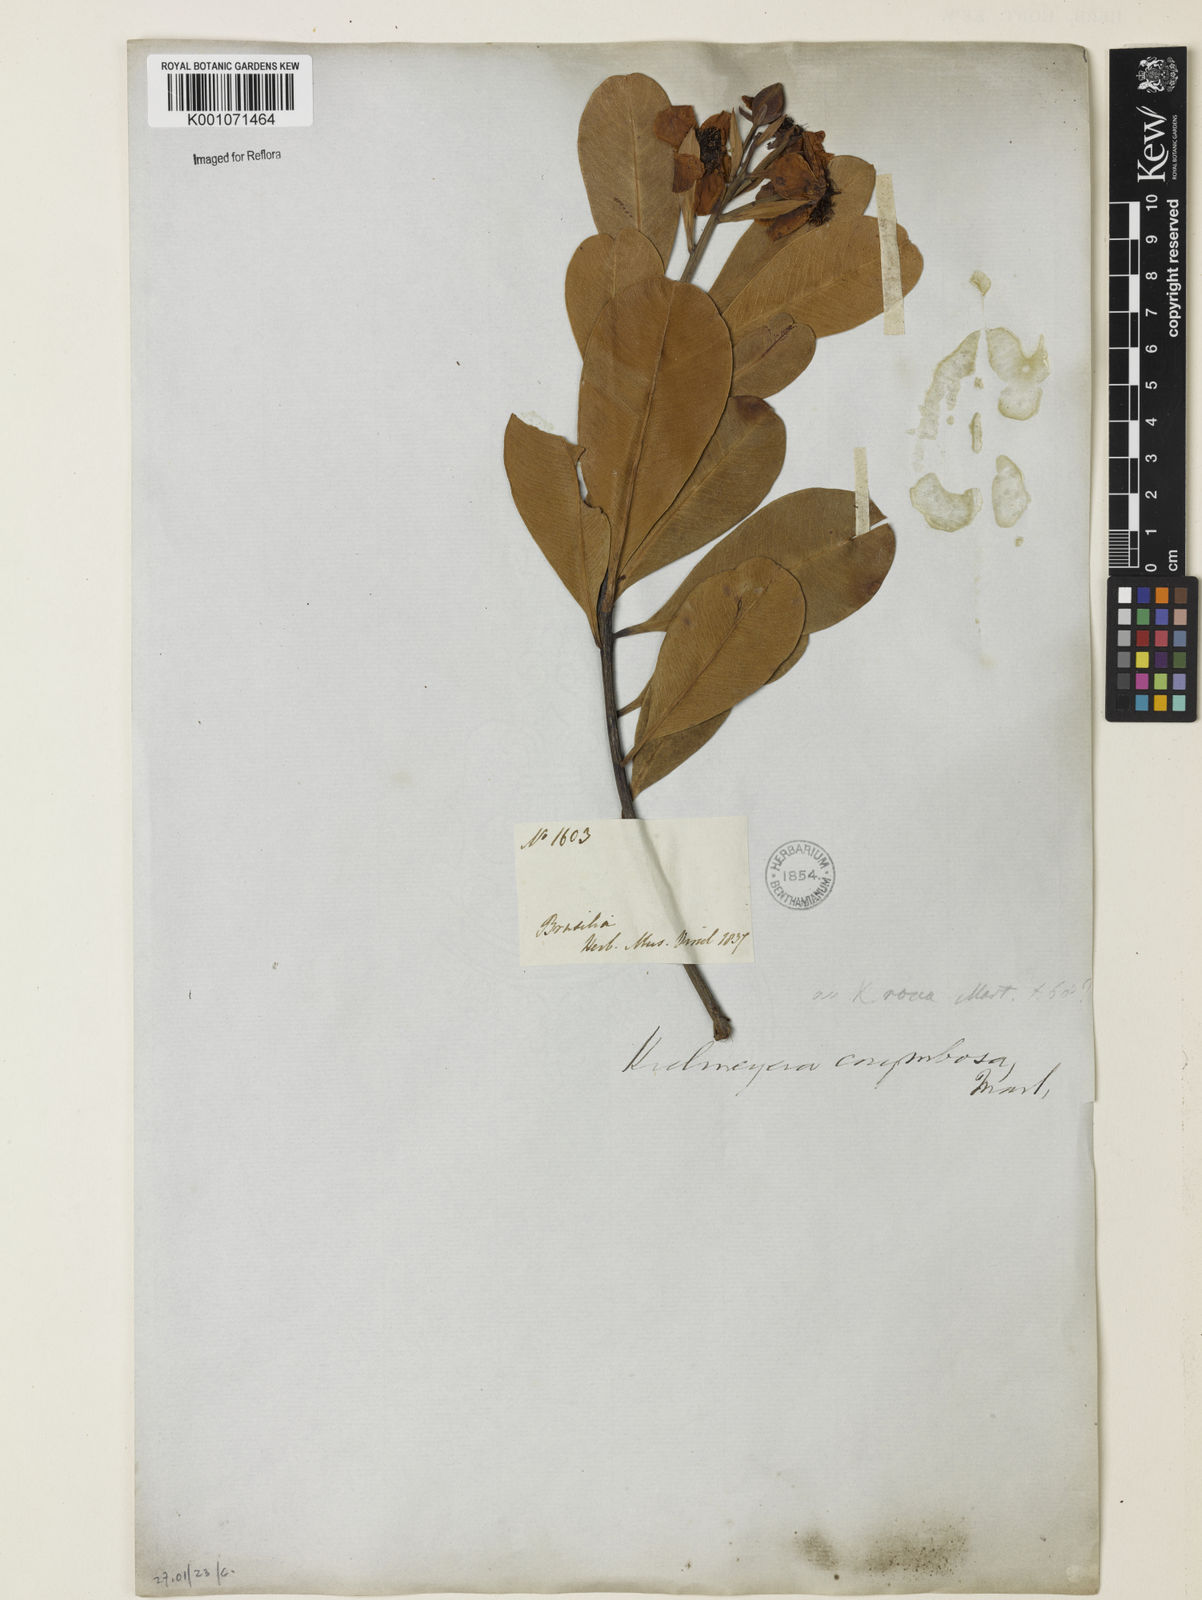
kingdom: Plantae
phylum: Tracheophyta
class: Magnoliopsida
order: Malpighiales
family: Calophyllaceae
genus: Kielmeyera
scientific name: Kielmeyera corymbosa
